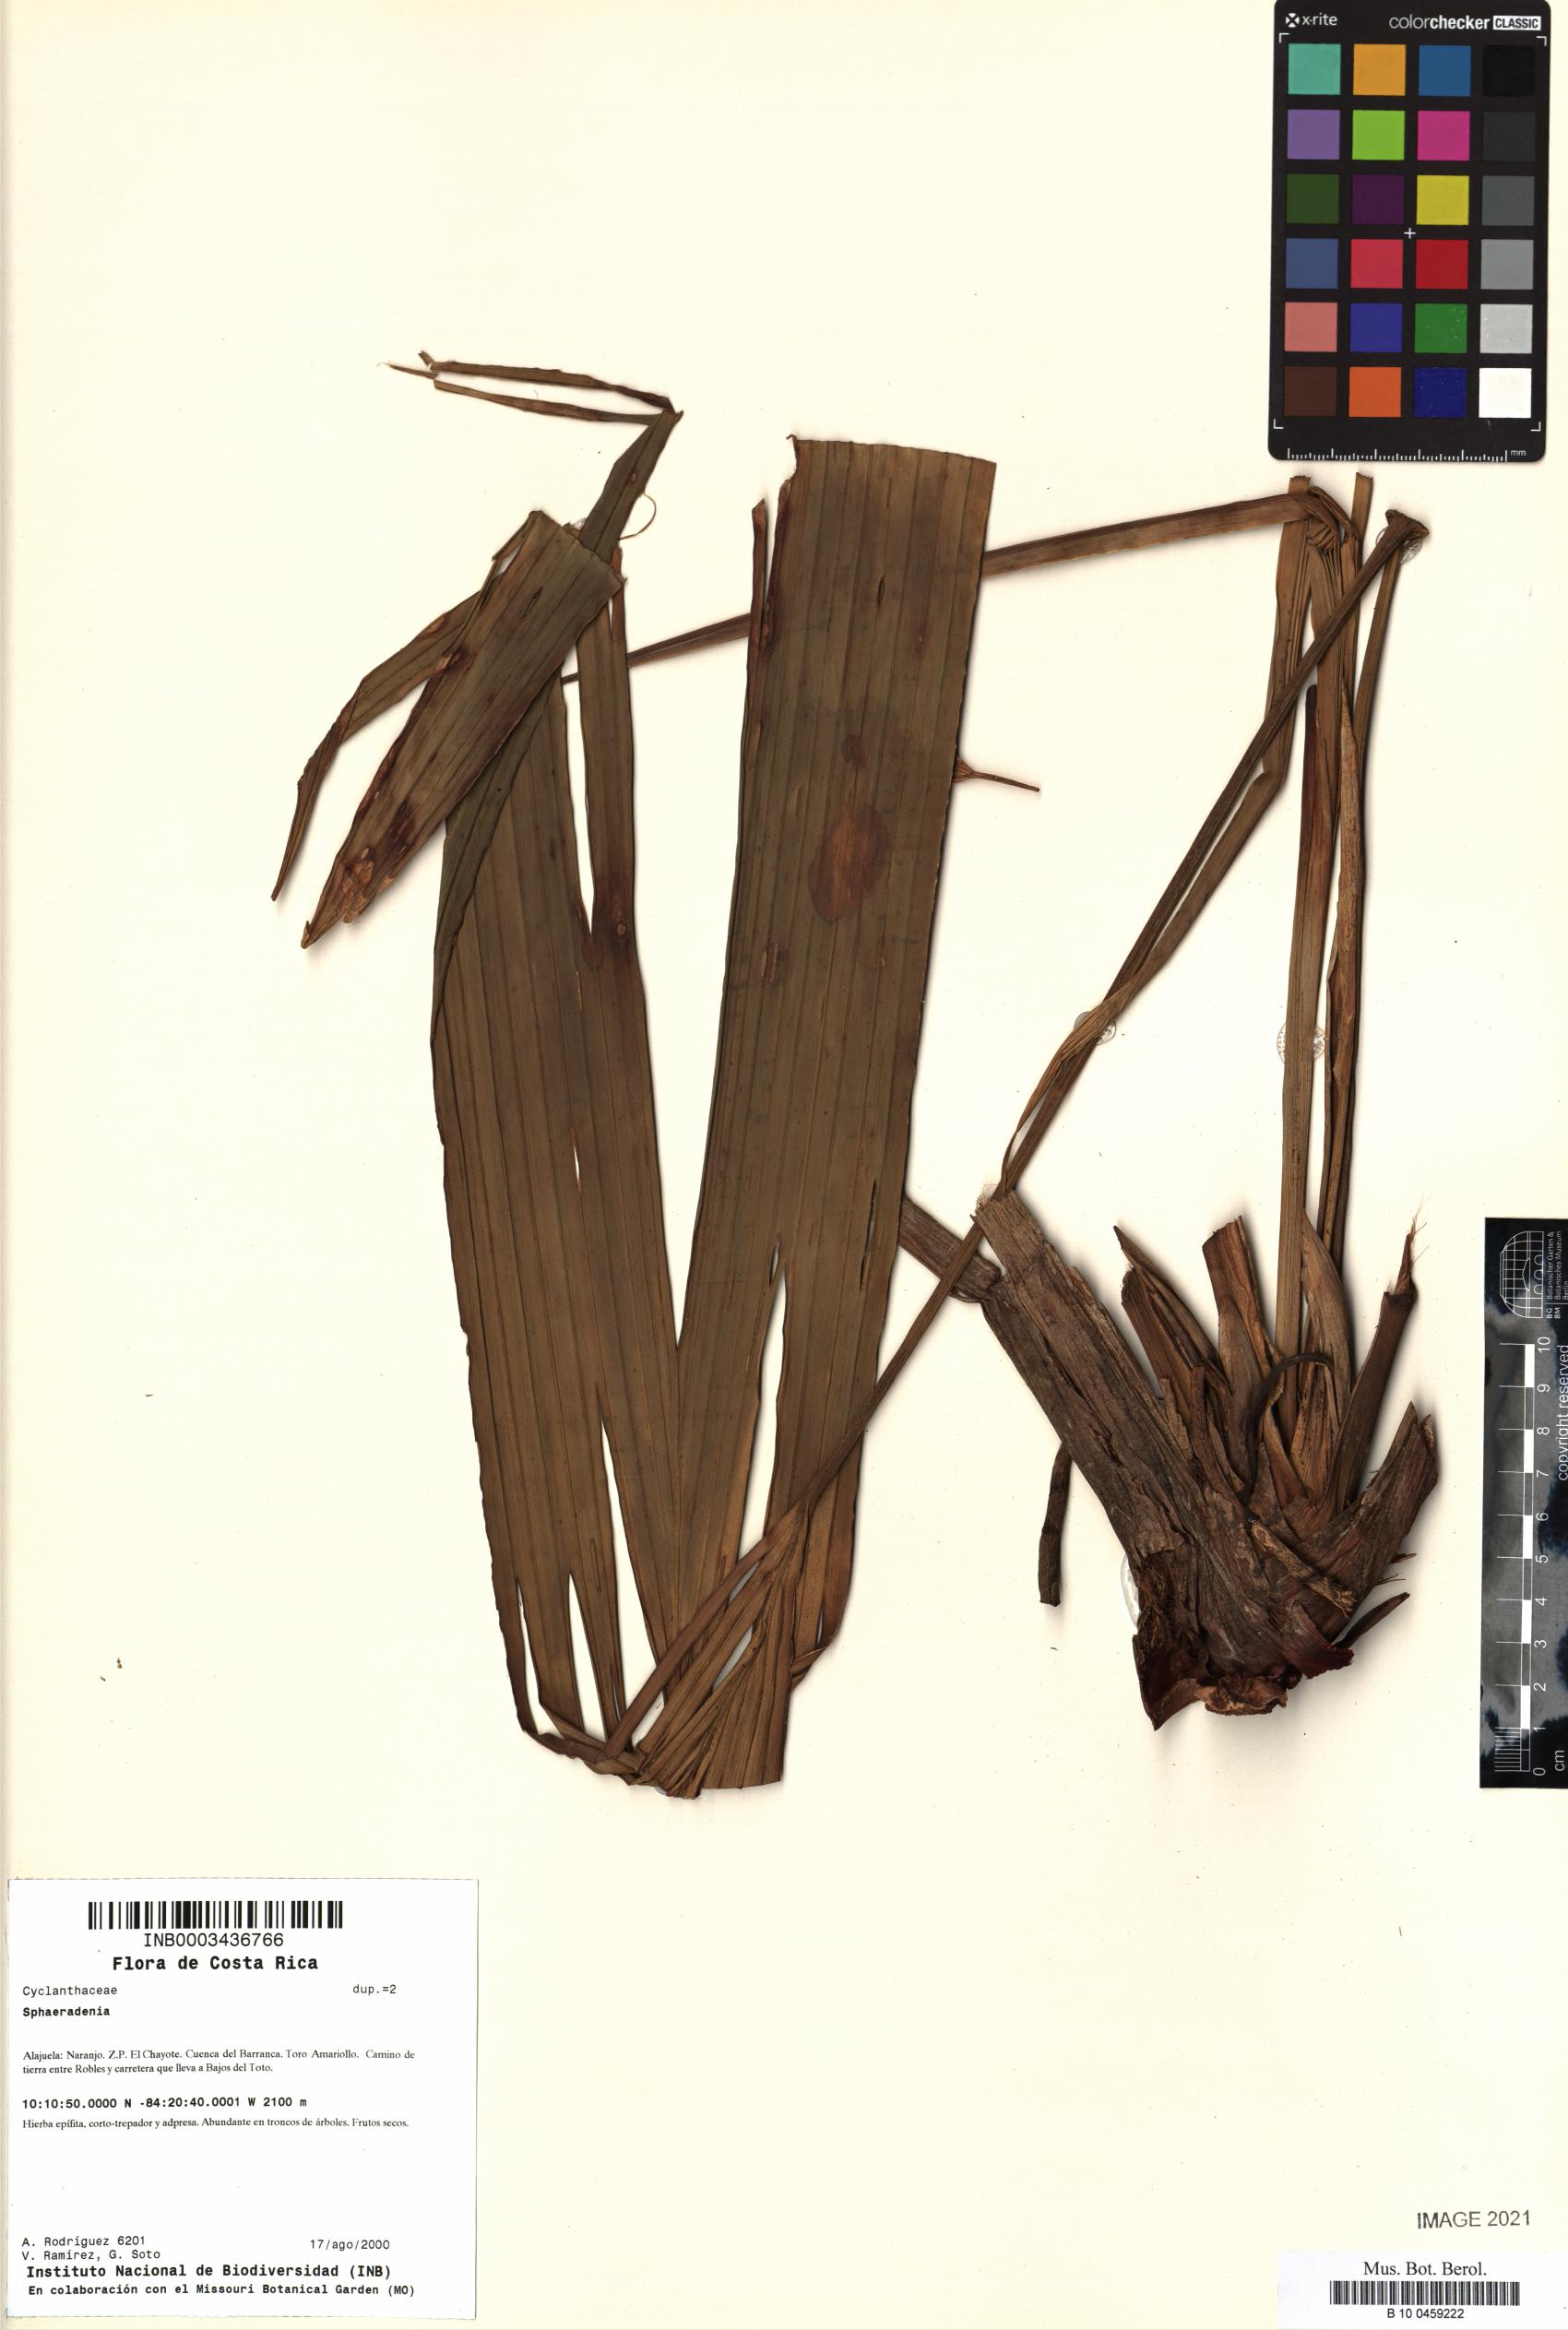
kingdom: Plantae
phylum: Tracheophyta
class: Liliopsida
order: Pandanales
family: Cyclanthaceae
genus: Sphaeradenia
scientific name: Sphaeradenia
